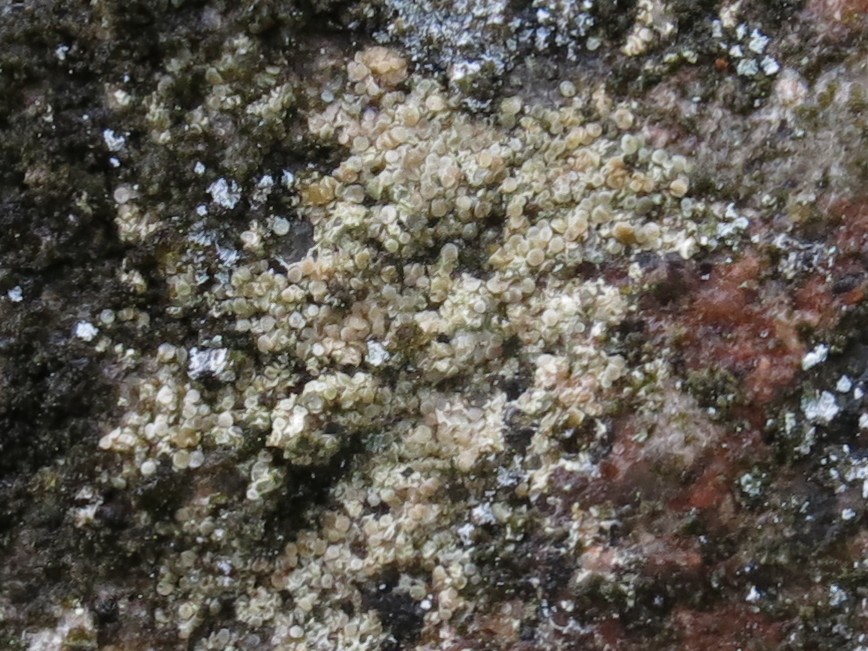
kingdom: Fungi
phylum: Ascomycota
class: Lecanoromycetes
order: Lecanorales
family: Lecanoraceae
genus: Lecanora
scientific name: Lecanora polytropa
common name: bleggrøn kantskivelav
